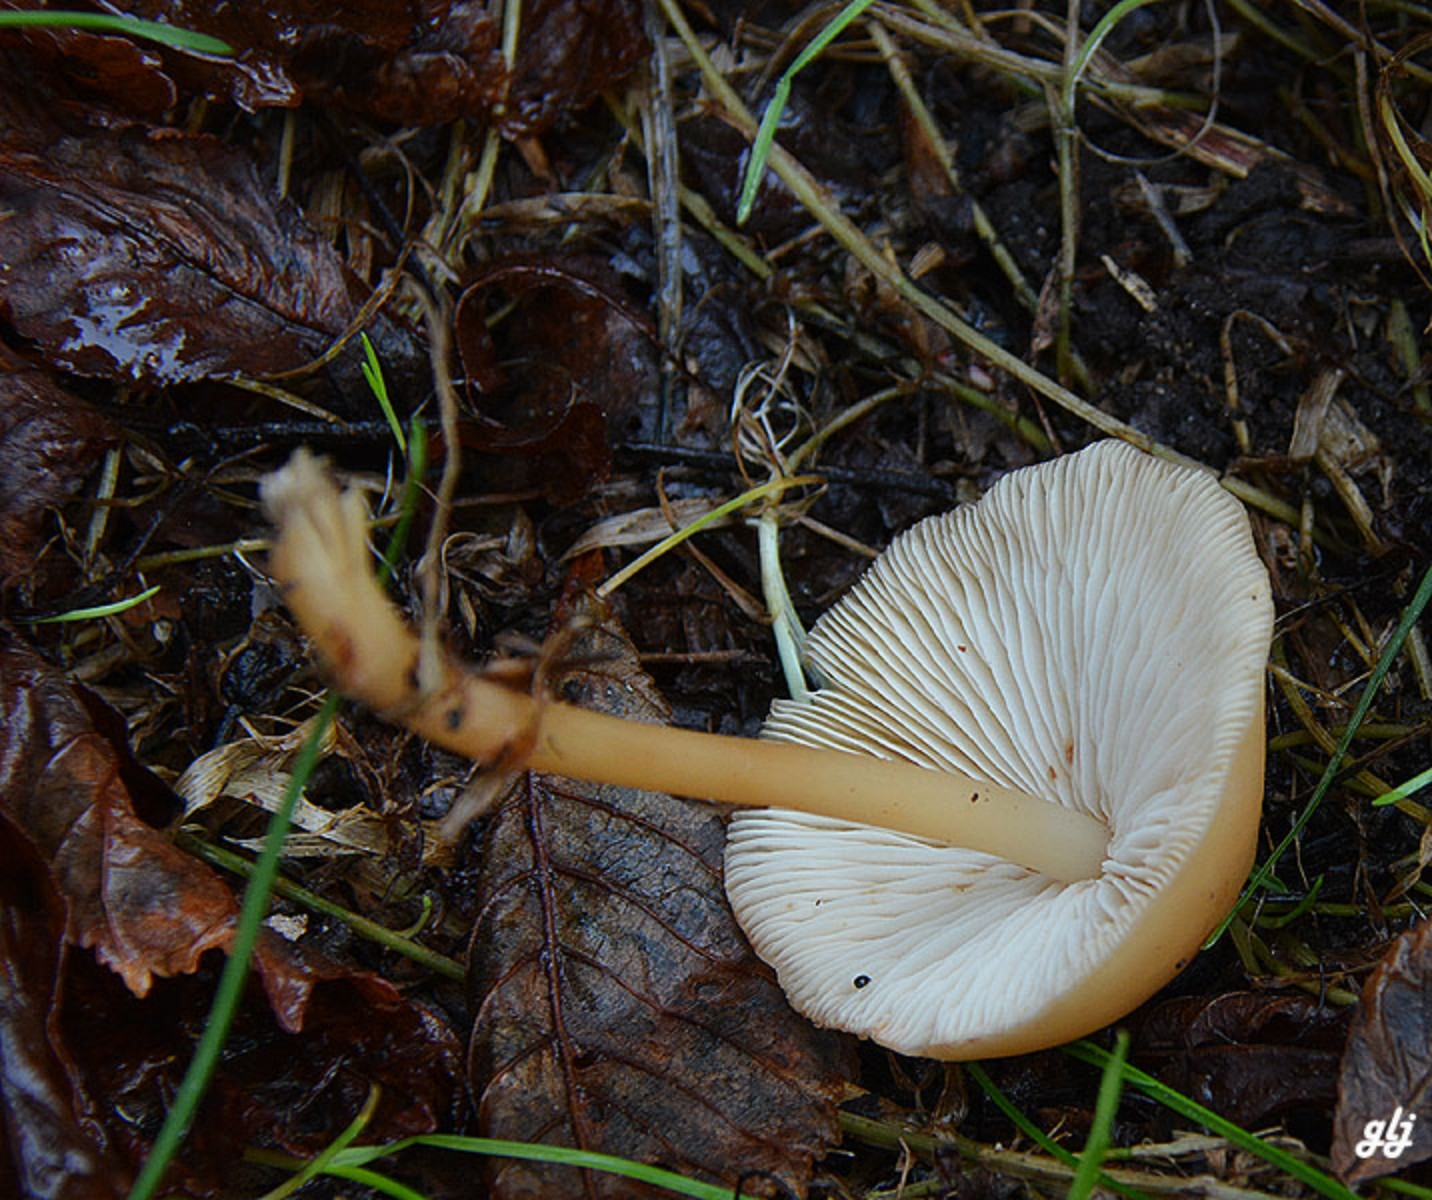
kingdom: Fungi
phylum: Basidiomycota
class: Agaricomycetes
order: Agaricales
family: Omphalotaceae
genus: Gymnopus
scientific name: Gymnopus dryophilus
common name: løv-fladhat
